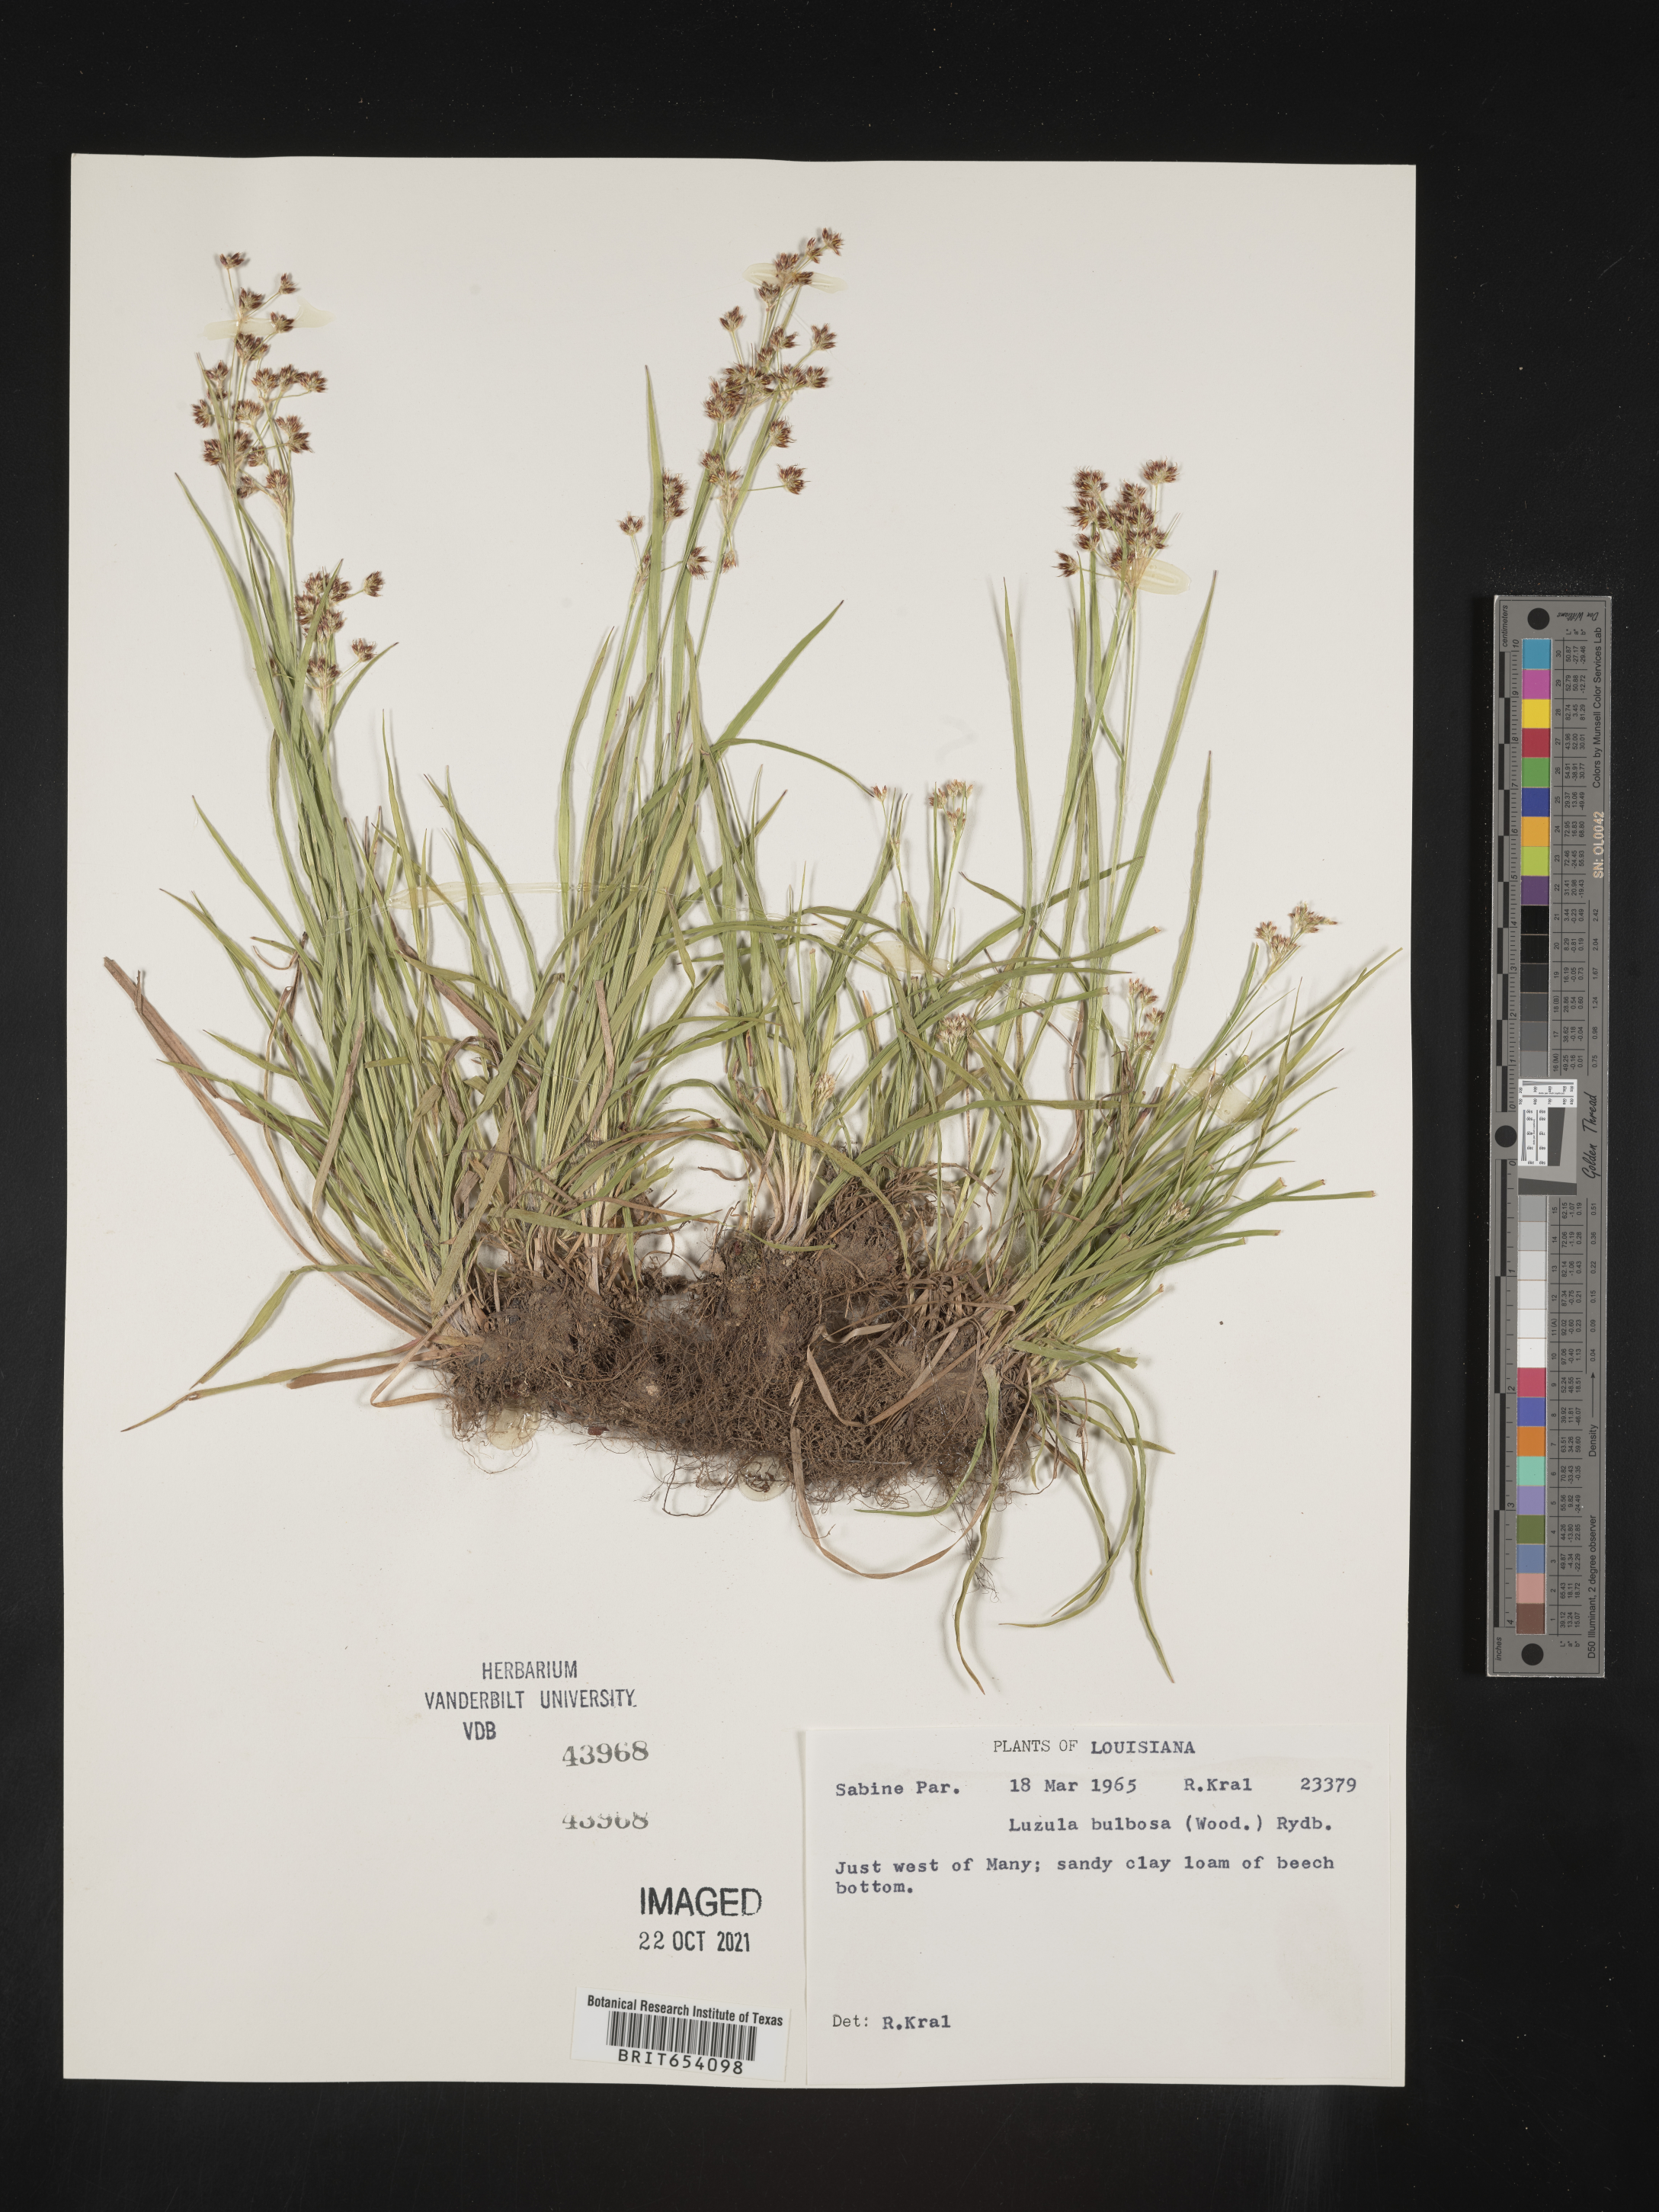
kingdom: Plantae
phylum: Tracheophyta
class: Liliopsida
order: Poales
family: Juncaceae
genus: Luzula
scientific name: Luzula bulbosa
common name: Bulbous woodrush
